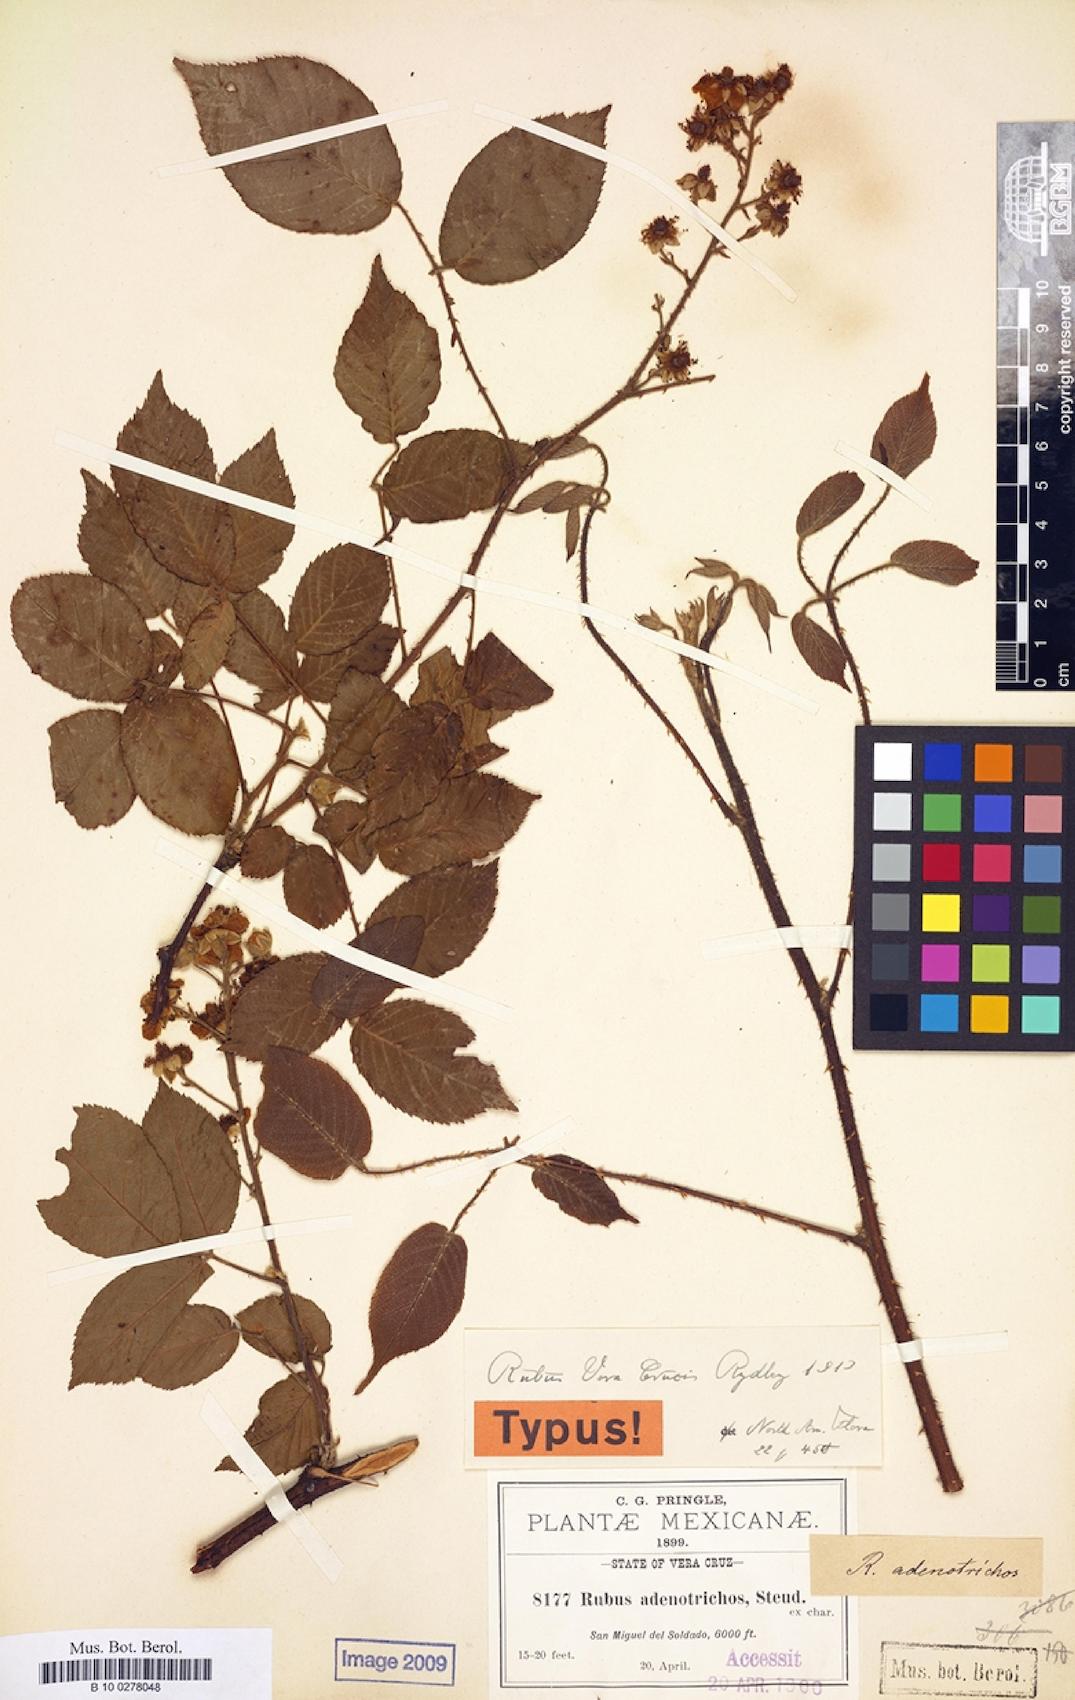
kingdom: Plantae
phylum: Tracheophyta
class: Magnoliopsida
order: Rosales
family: Rosaceae
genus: Rubus
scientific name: Rubus adenotrichos
